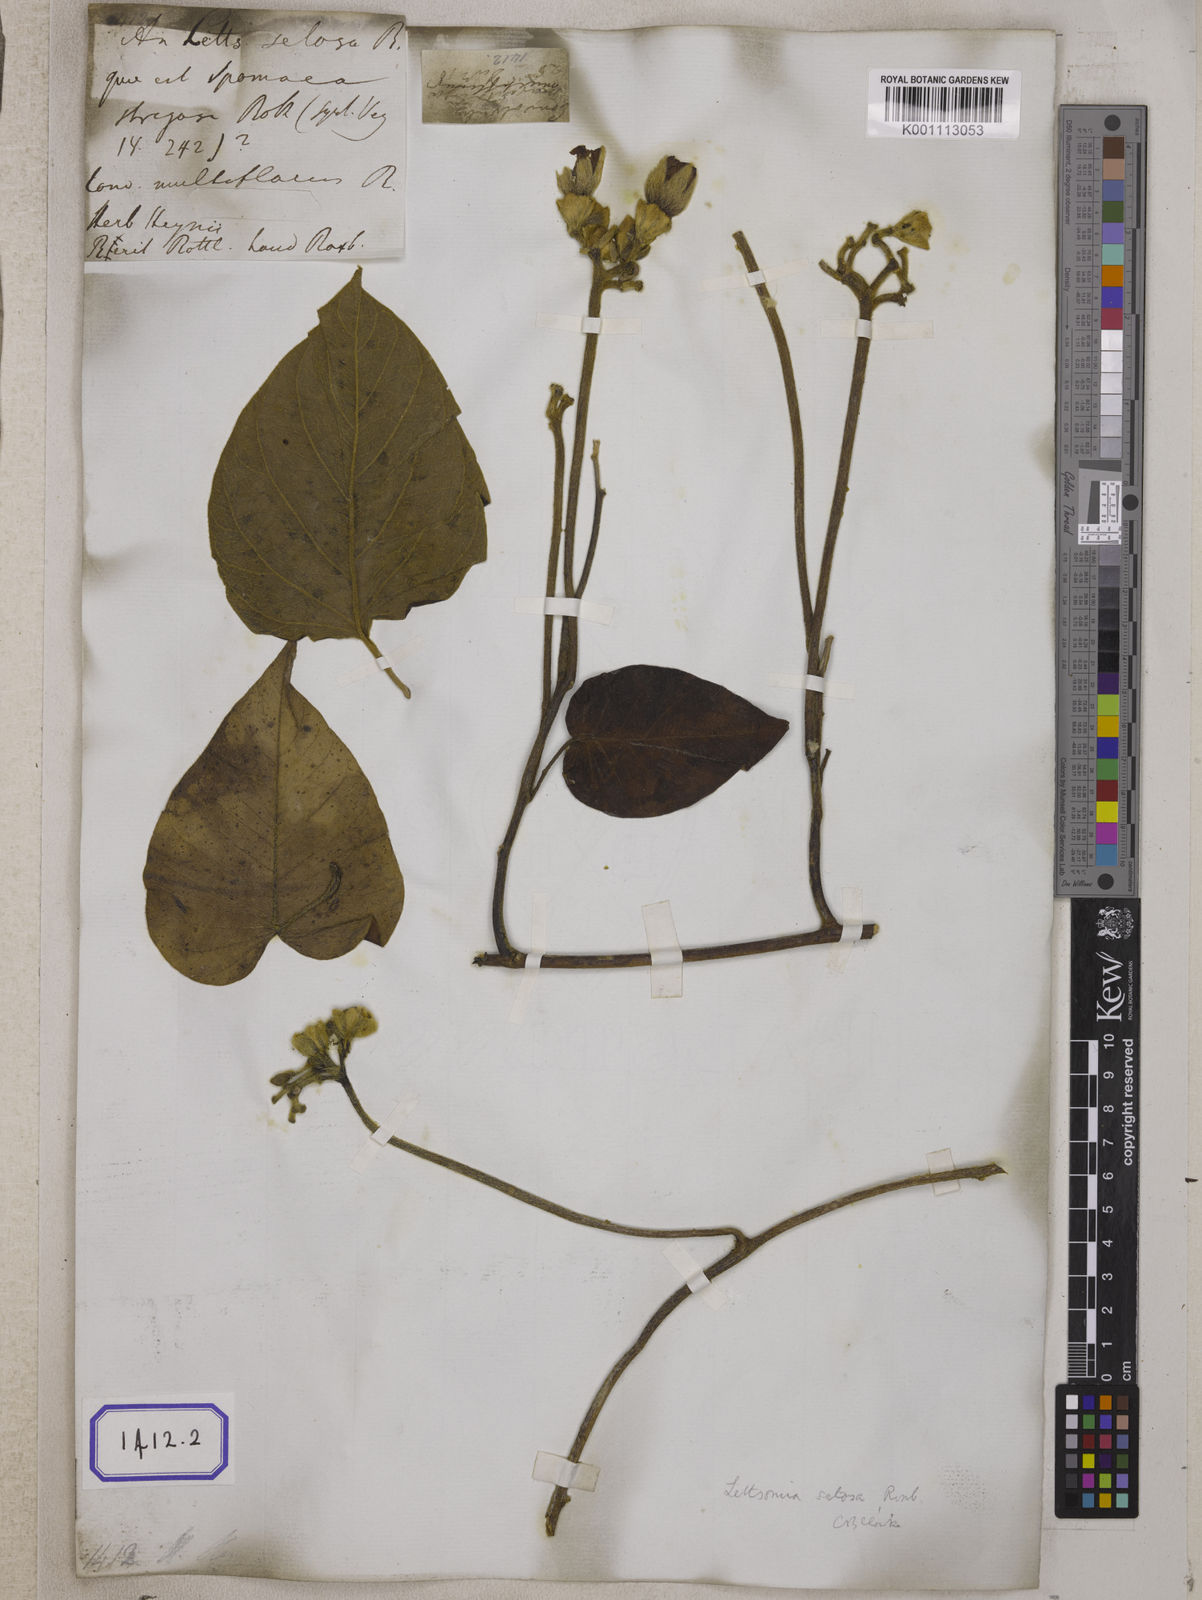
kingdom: Plantae
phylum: Tracheophyta
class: Magnoliopsida
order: Solanales
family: Convolvulaceae
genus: Convolvulus
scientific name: Convolvulus
